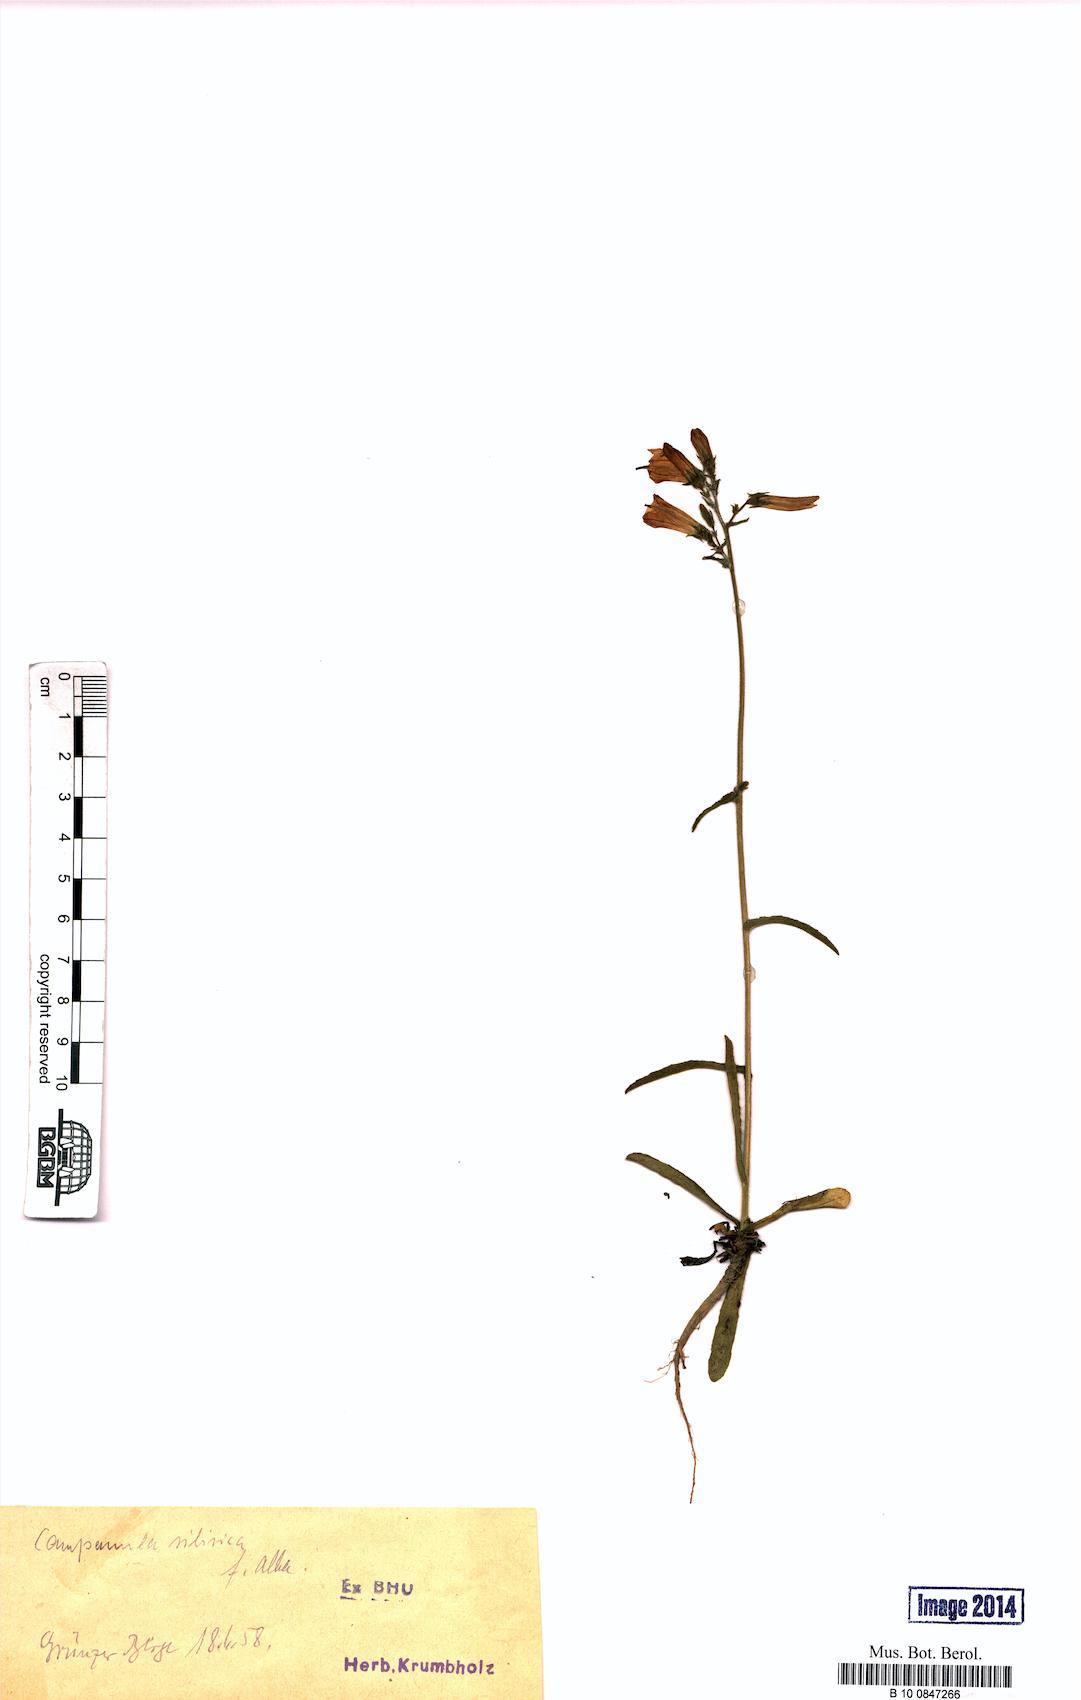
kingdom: Plantae
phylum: Tracheophyta
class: Magnoliopsida
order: Asterales
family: Campanulaceae
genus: Campanula
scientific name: Campanula sibirica
